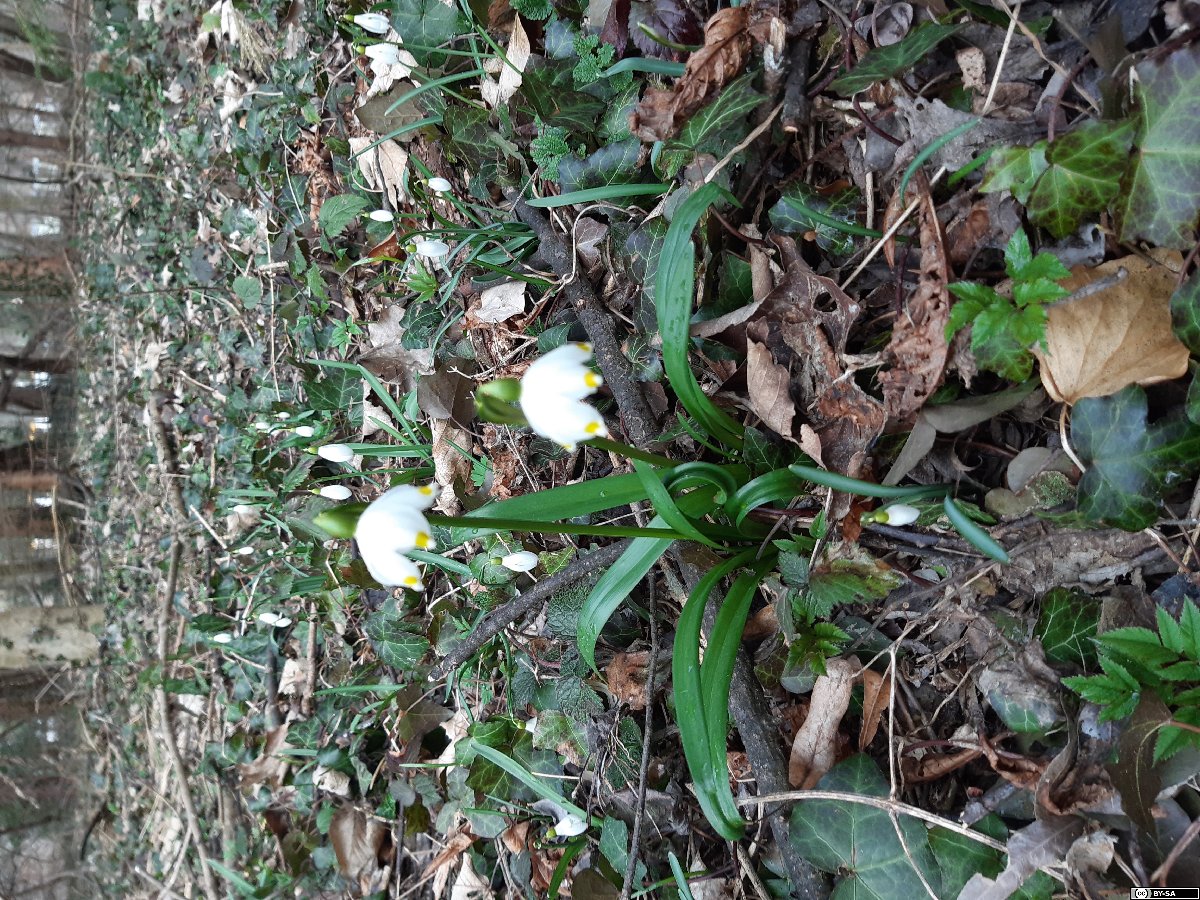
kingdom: Plantae
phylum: Tracheophyta
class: Liliopsida
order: Asparagales
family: Amaryllidaceae
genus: Leucojum
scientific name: Leucojum vernum
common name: Spring snowflake
